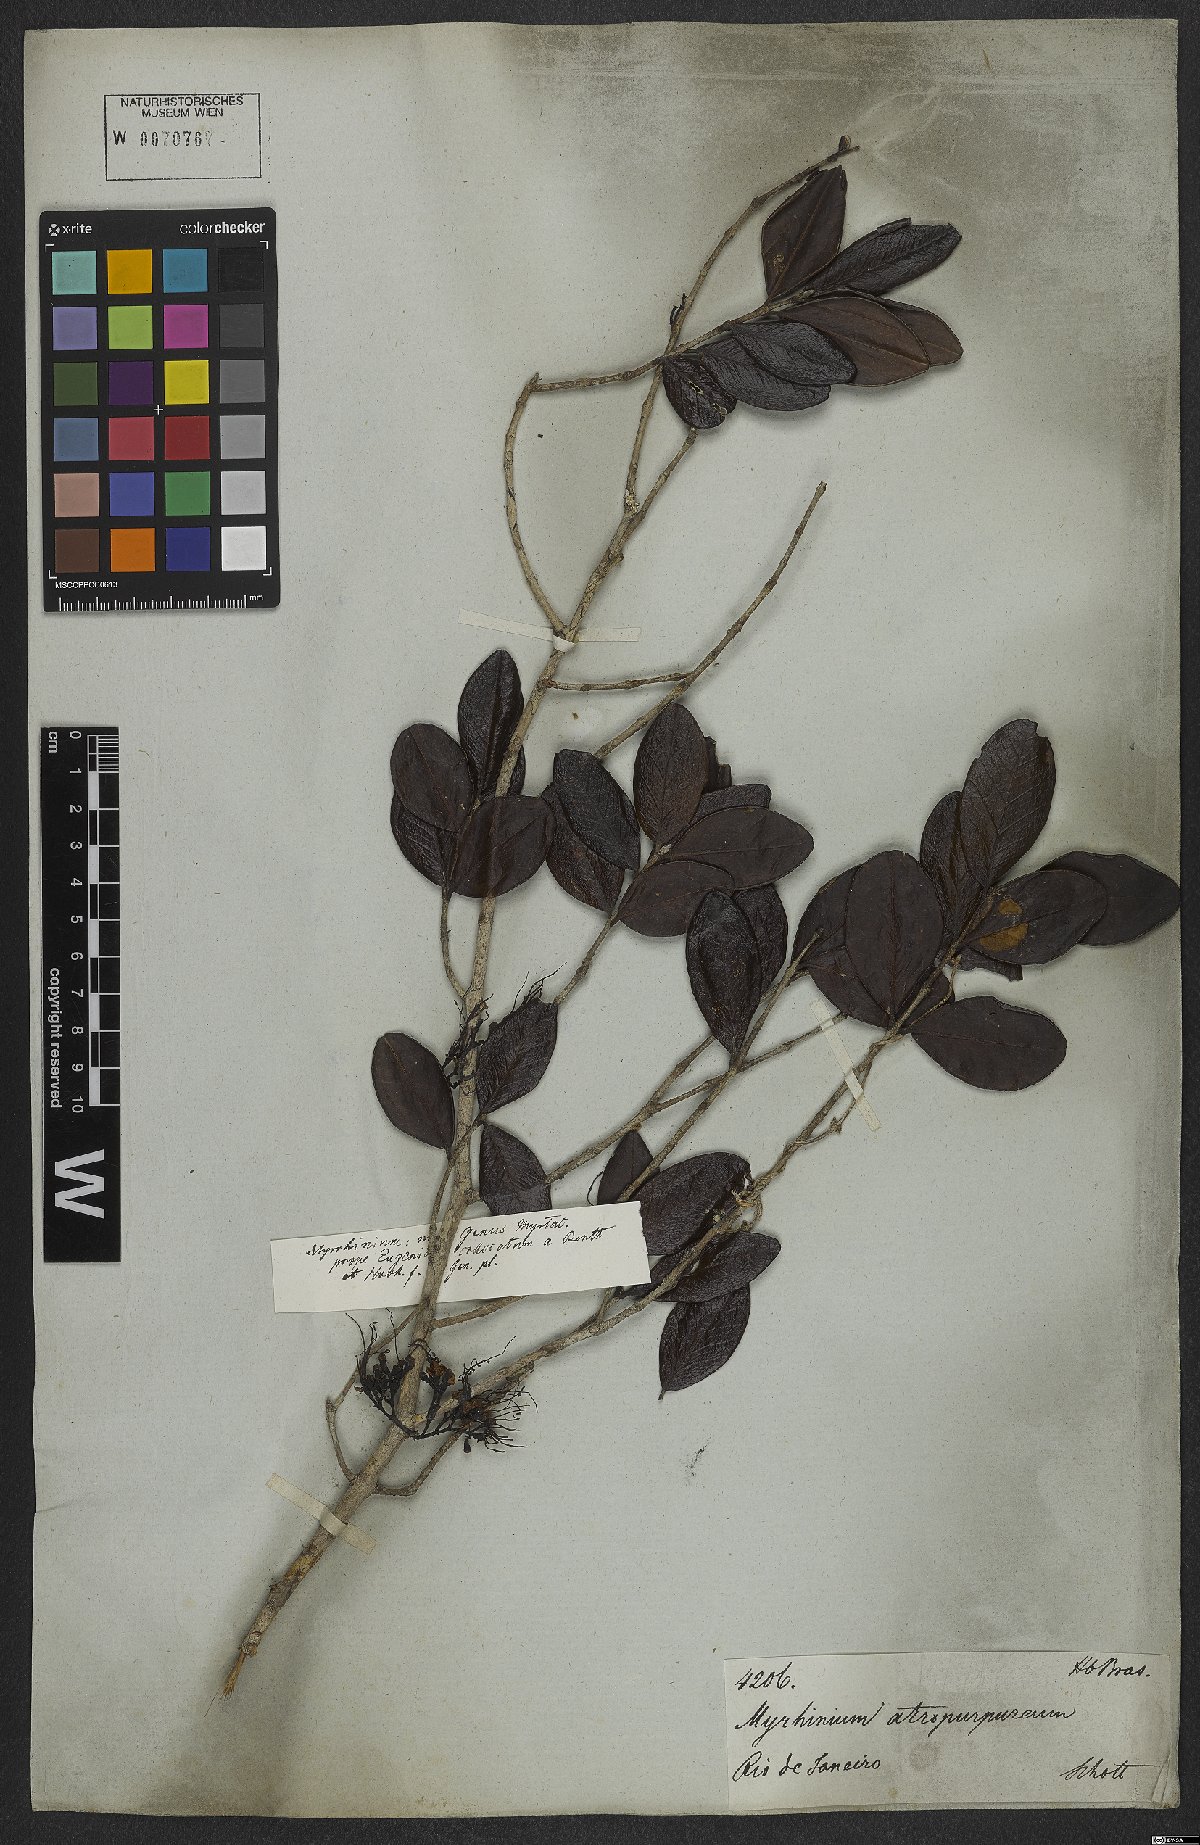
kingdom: Plantae
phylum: Tracheophyta
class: Magnoliopsida
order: Myrtales
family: Myrtaceae
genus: Myrrhinium
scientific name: Myrrhinium atropurpureum
